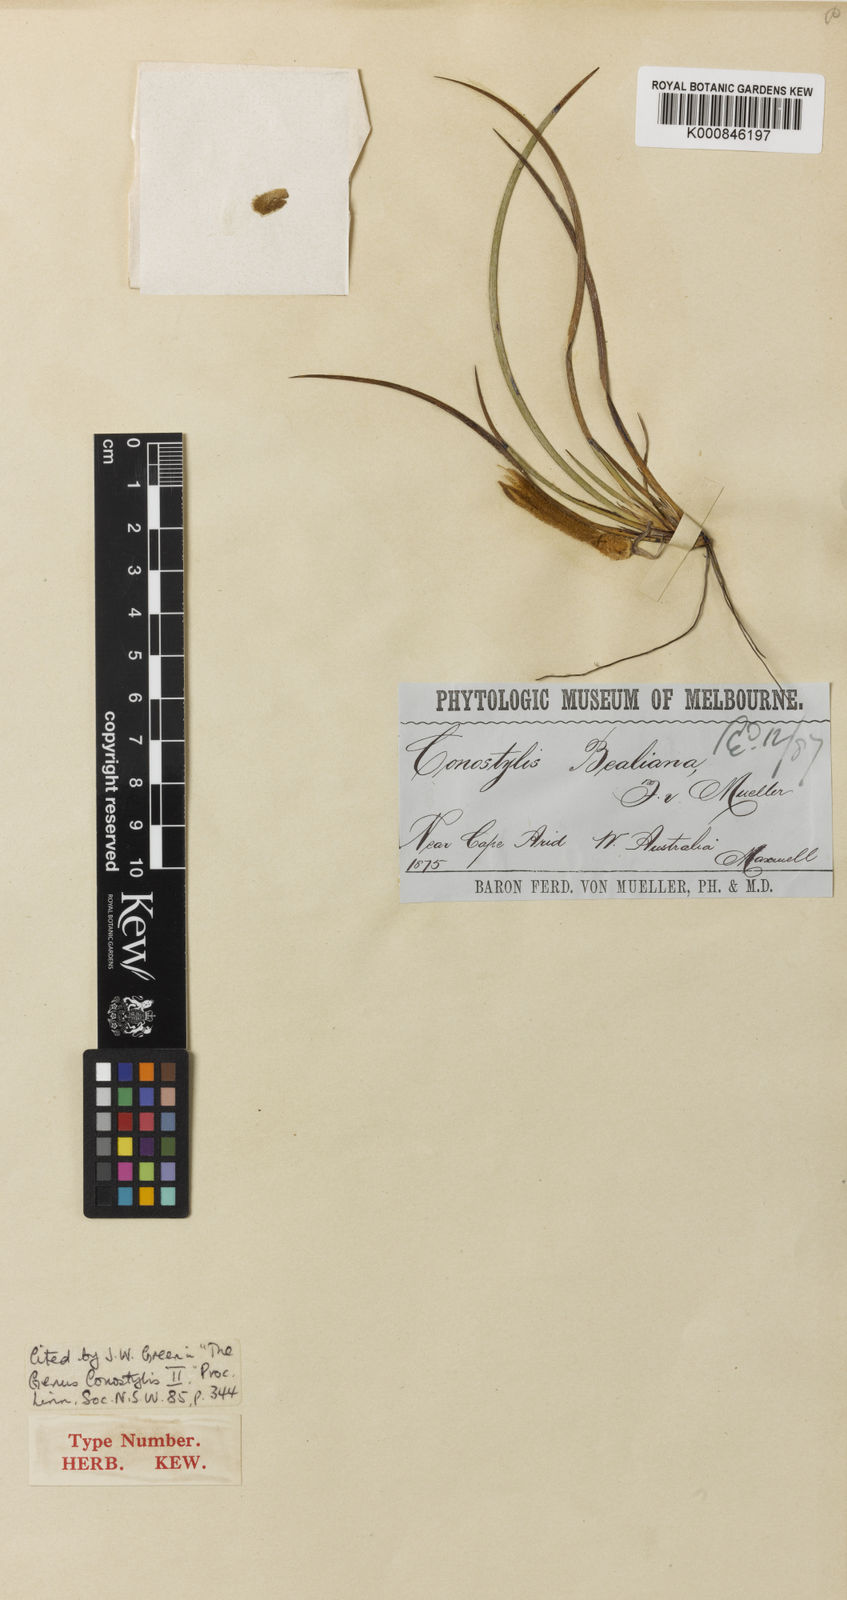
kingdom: Plantae
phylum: Tracheophyta
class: Liliopsida
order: Commelinales
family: Haemodoraceae
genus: Conostylis
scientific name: Conostylis bealiana
